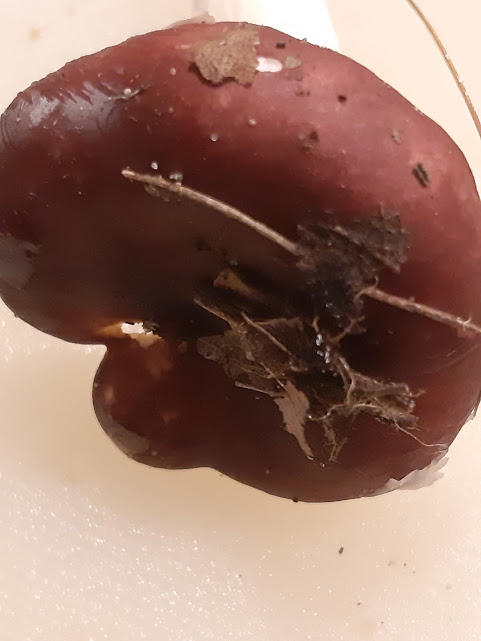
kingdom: Fungi
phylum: Basidiomycota
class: Agaricomycetes
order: Russulales
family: Russulaceae
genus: Russula
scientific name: Russula
